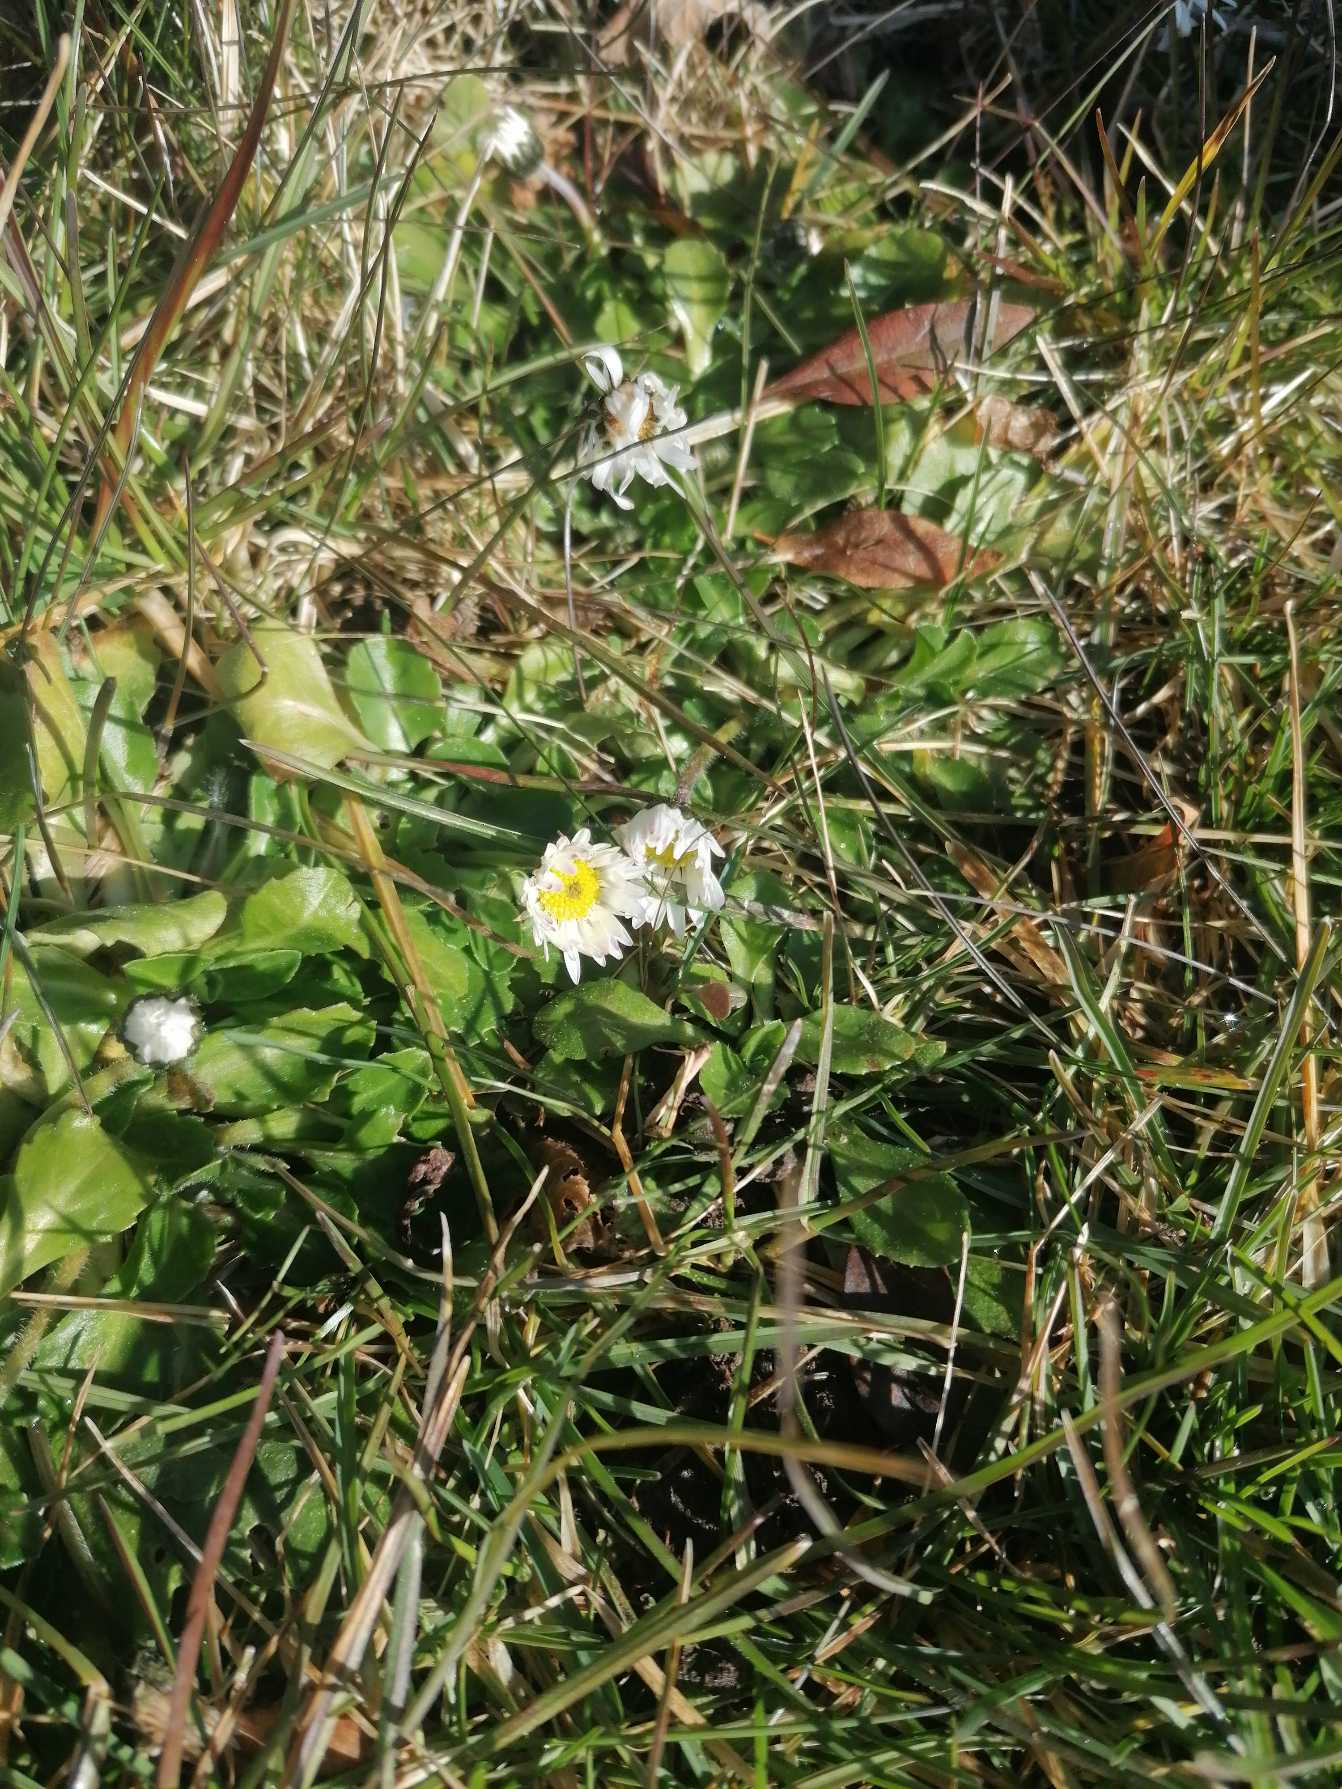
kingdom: Plantae
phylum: Tracheophyta
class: Magnoliopsida
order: Asterales
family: Asteraceae
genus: Bellis
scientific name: Bellis perennis
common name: Tusindfryd
